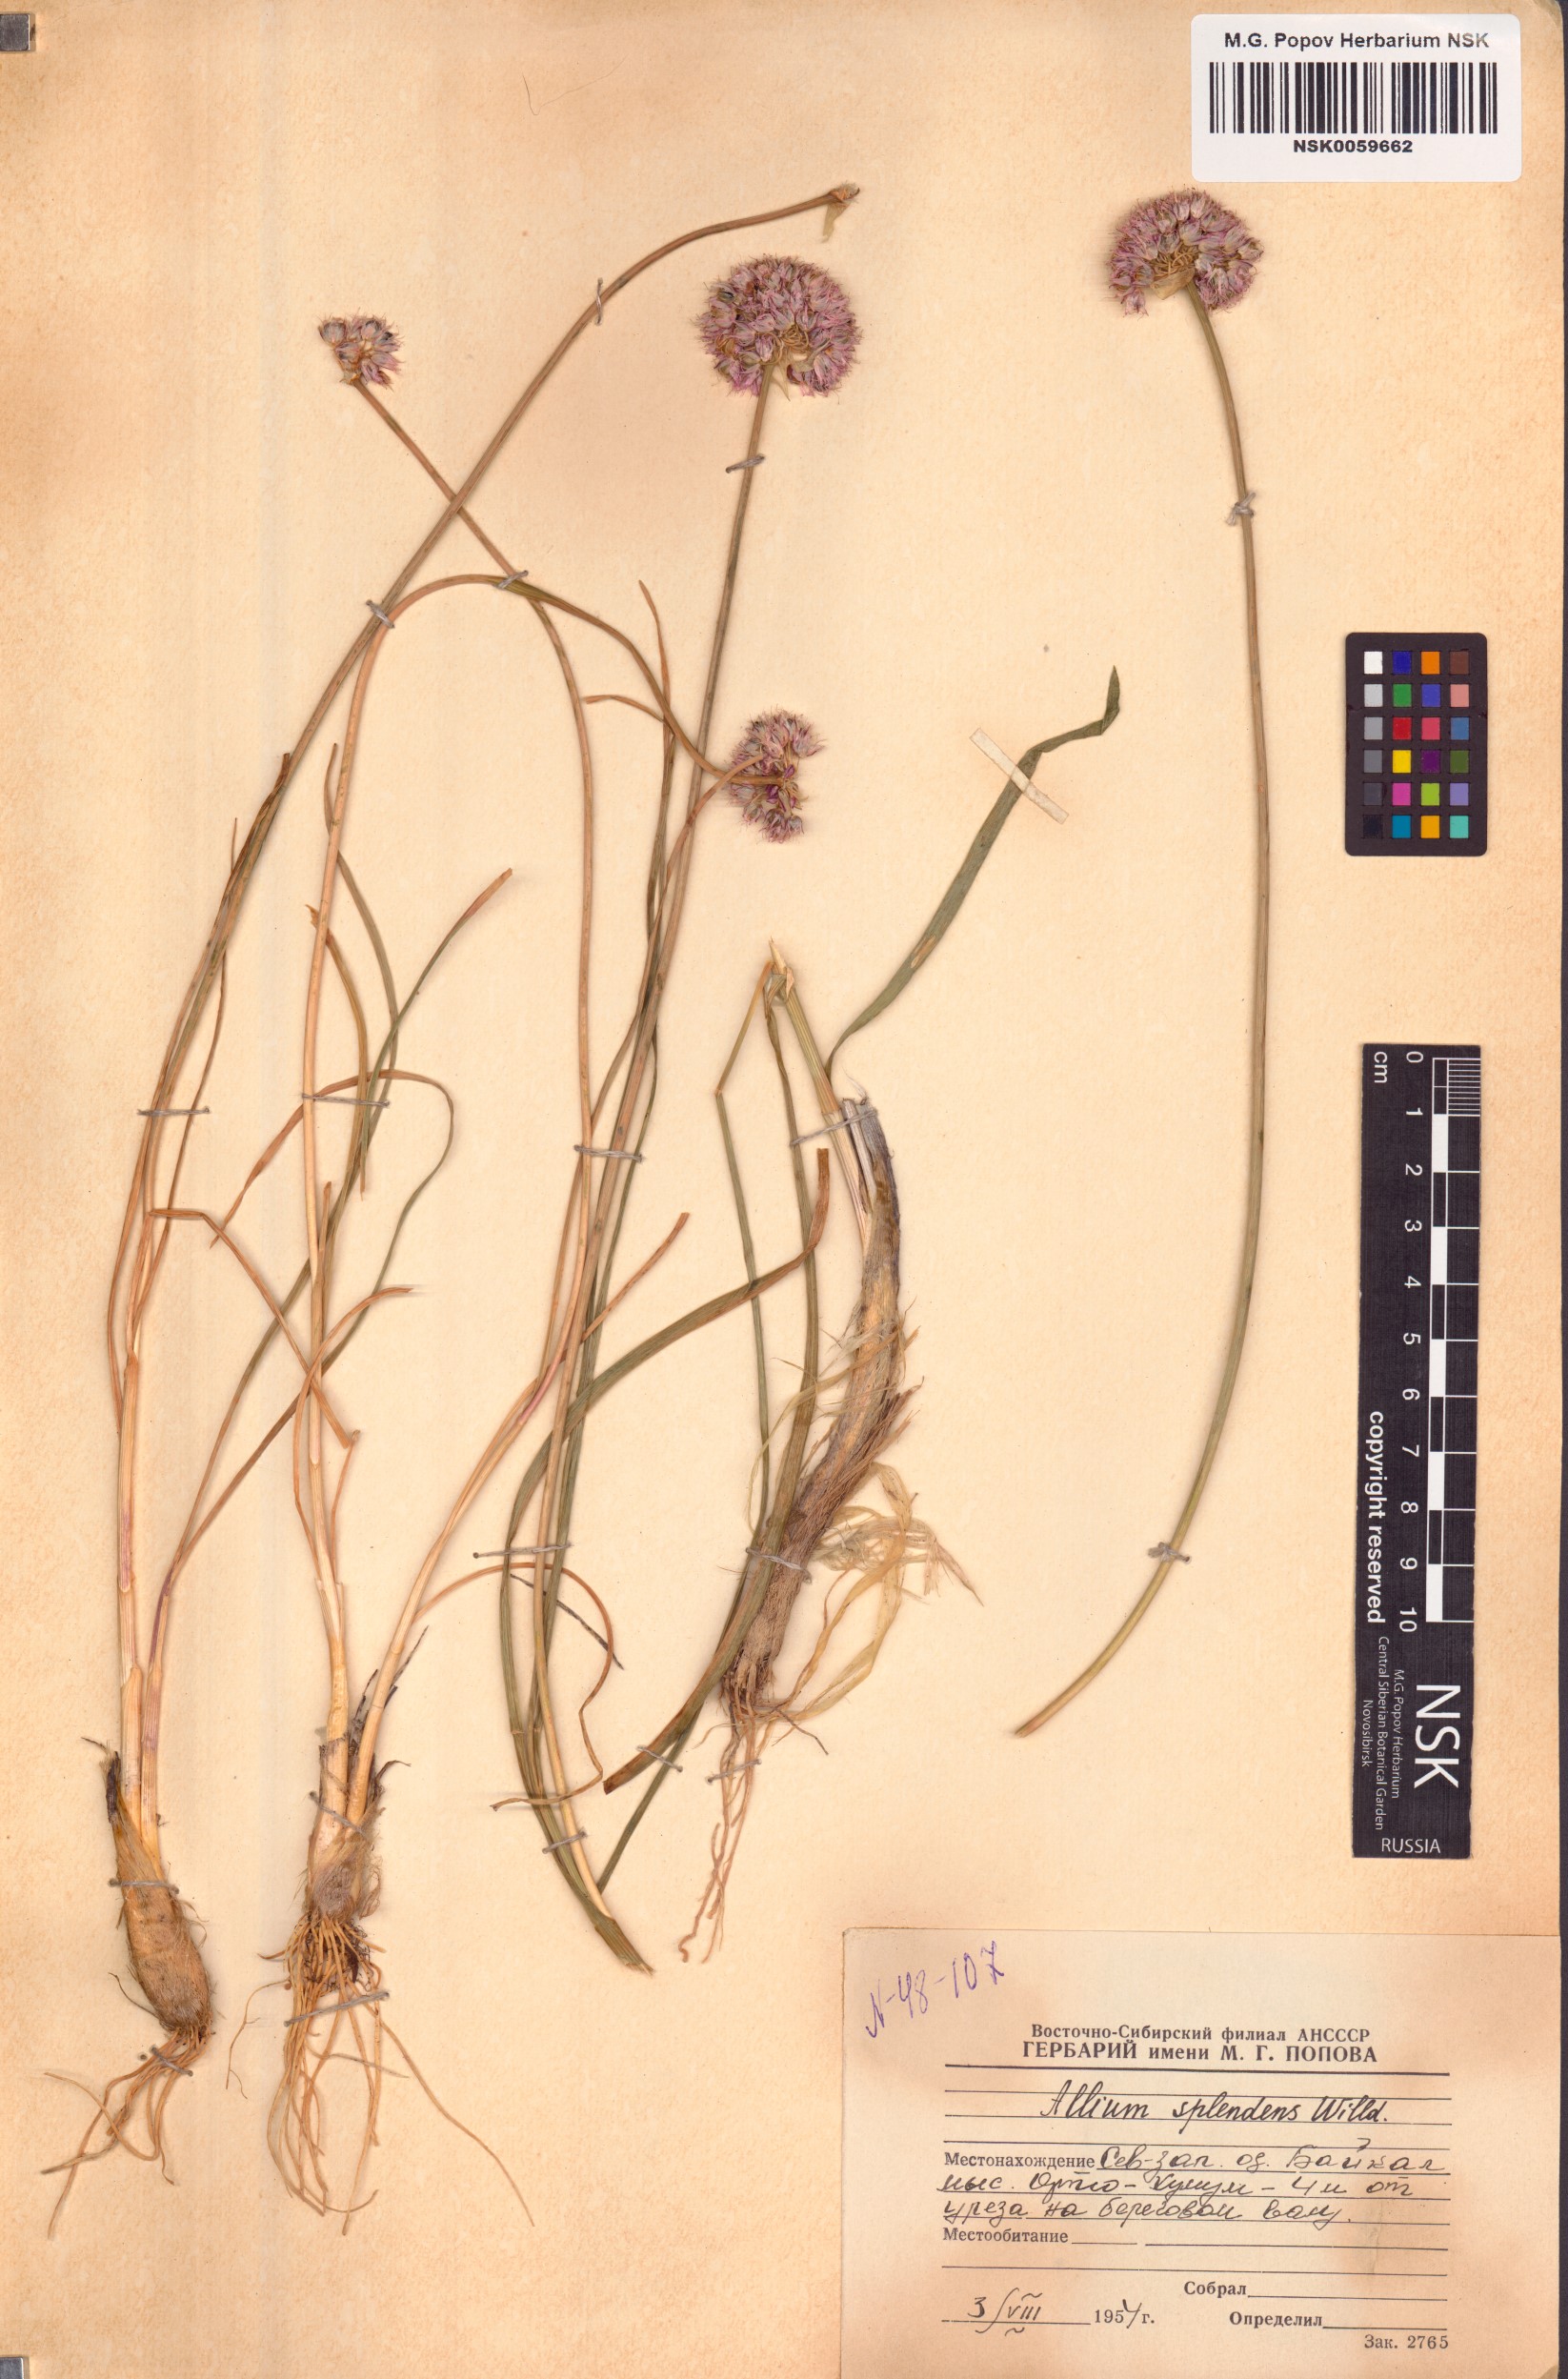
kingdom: Plantae
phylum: Tracheophyta
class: Liliopsida
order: Asparagales
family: Amaryllidaceae
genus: Allium
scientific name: Allium splendens
